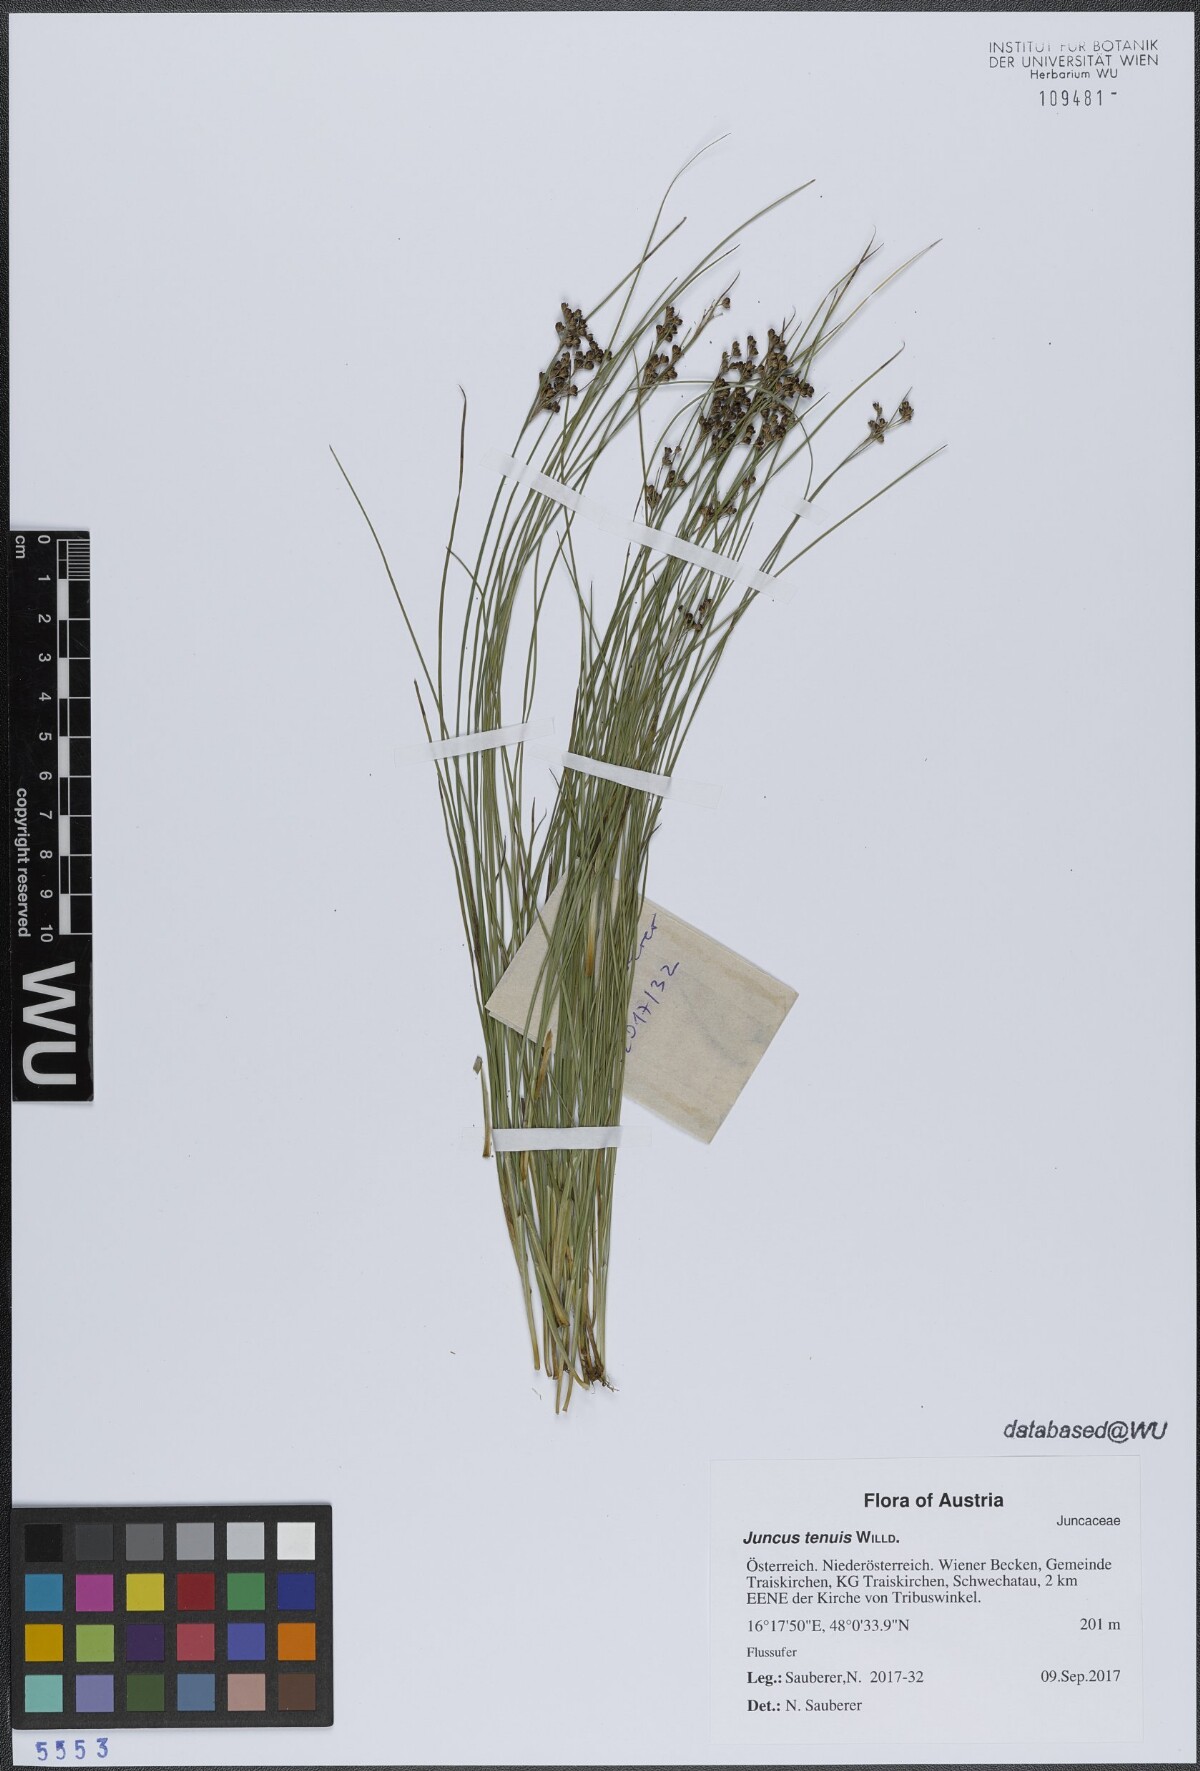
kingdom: Plantae
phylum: Tracheophyta
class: Liliopsida
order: Poales
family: Juncaceae
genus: Juncus
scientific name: Juncus tenuis
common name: Slender rush
